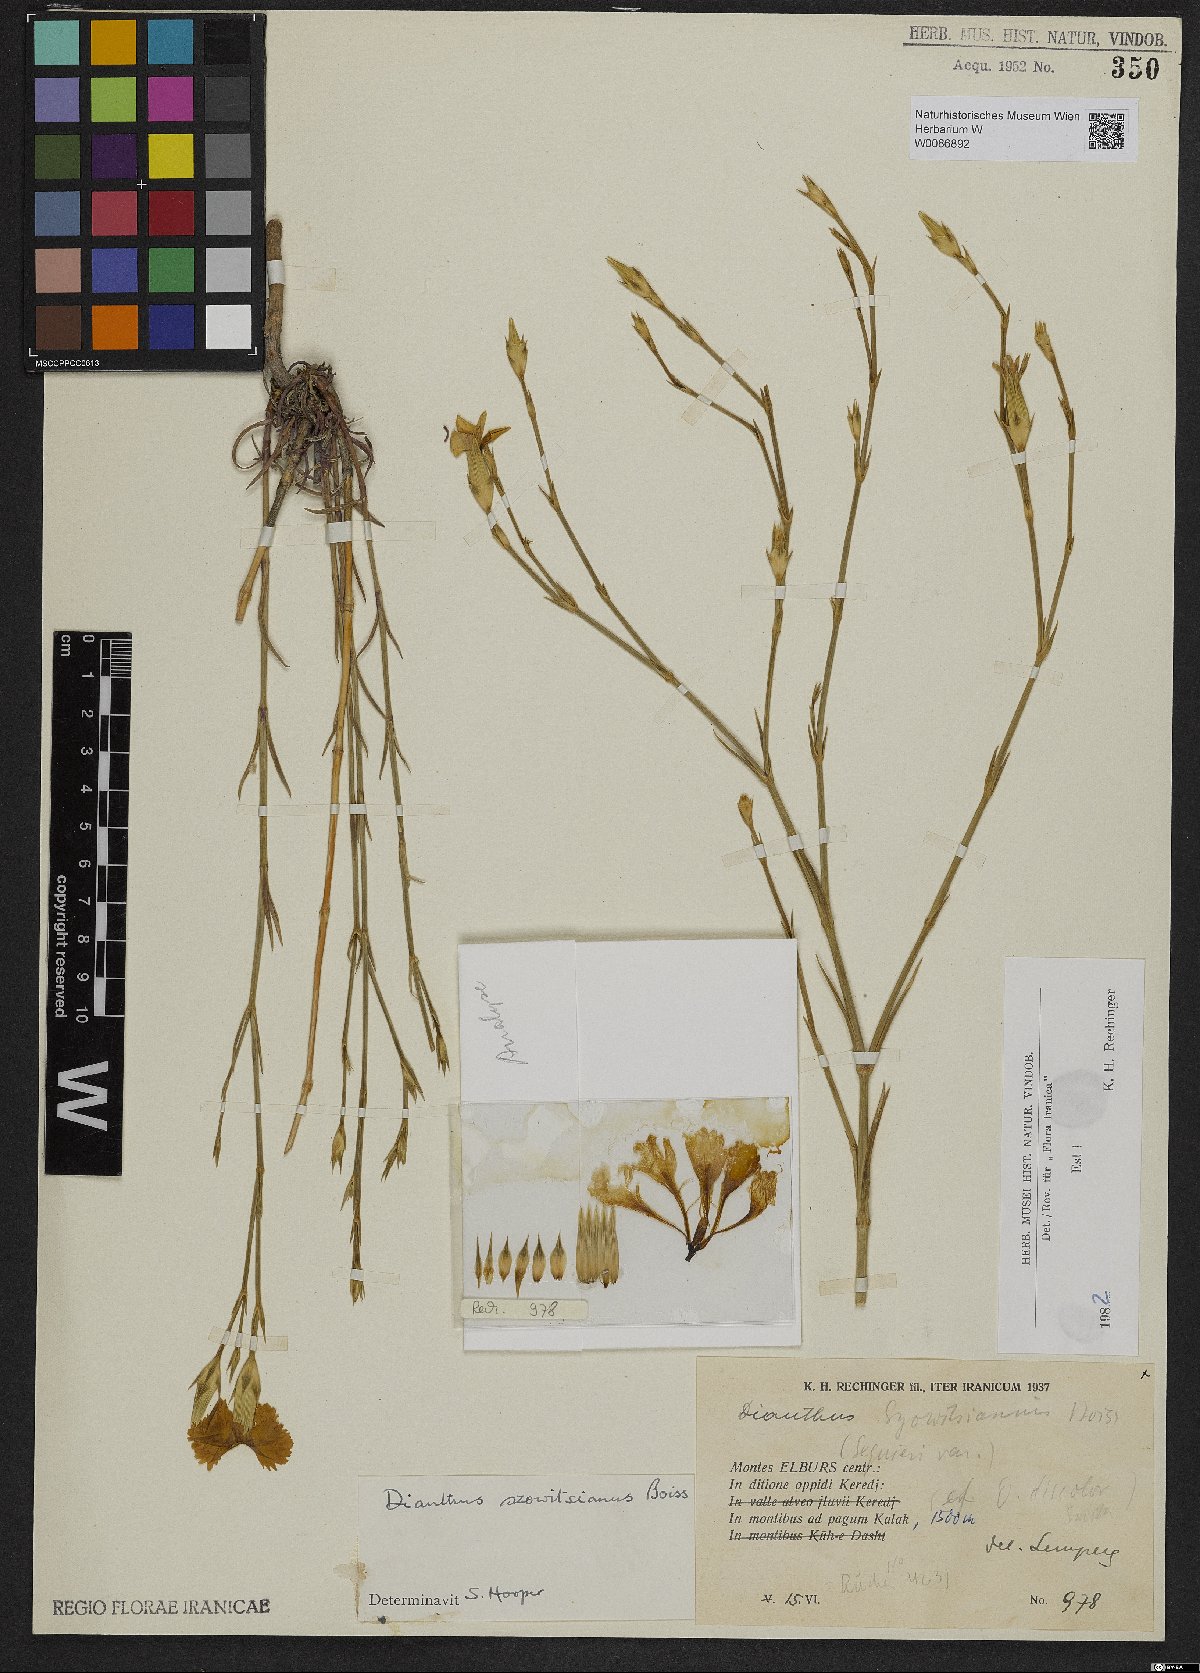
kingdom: Plantae
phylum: Tracheophyta
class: Magnoliopsida
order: Caryophyllales
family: Caryophyllaceae
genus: Dianthus
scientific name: Dianthus szowitsianus
